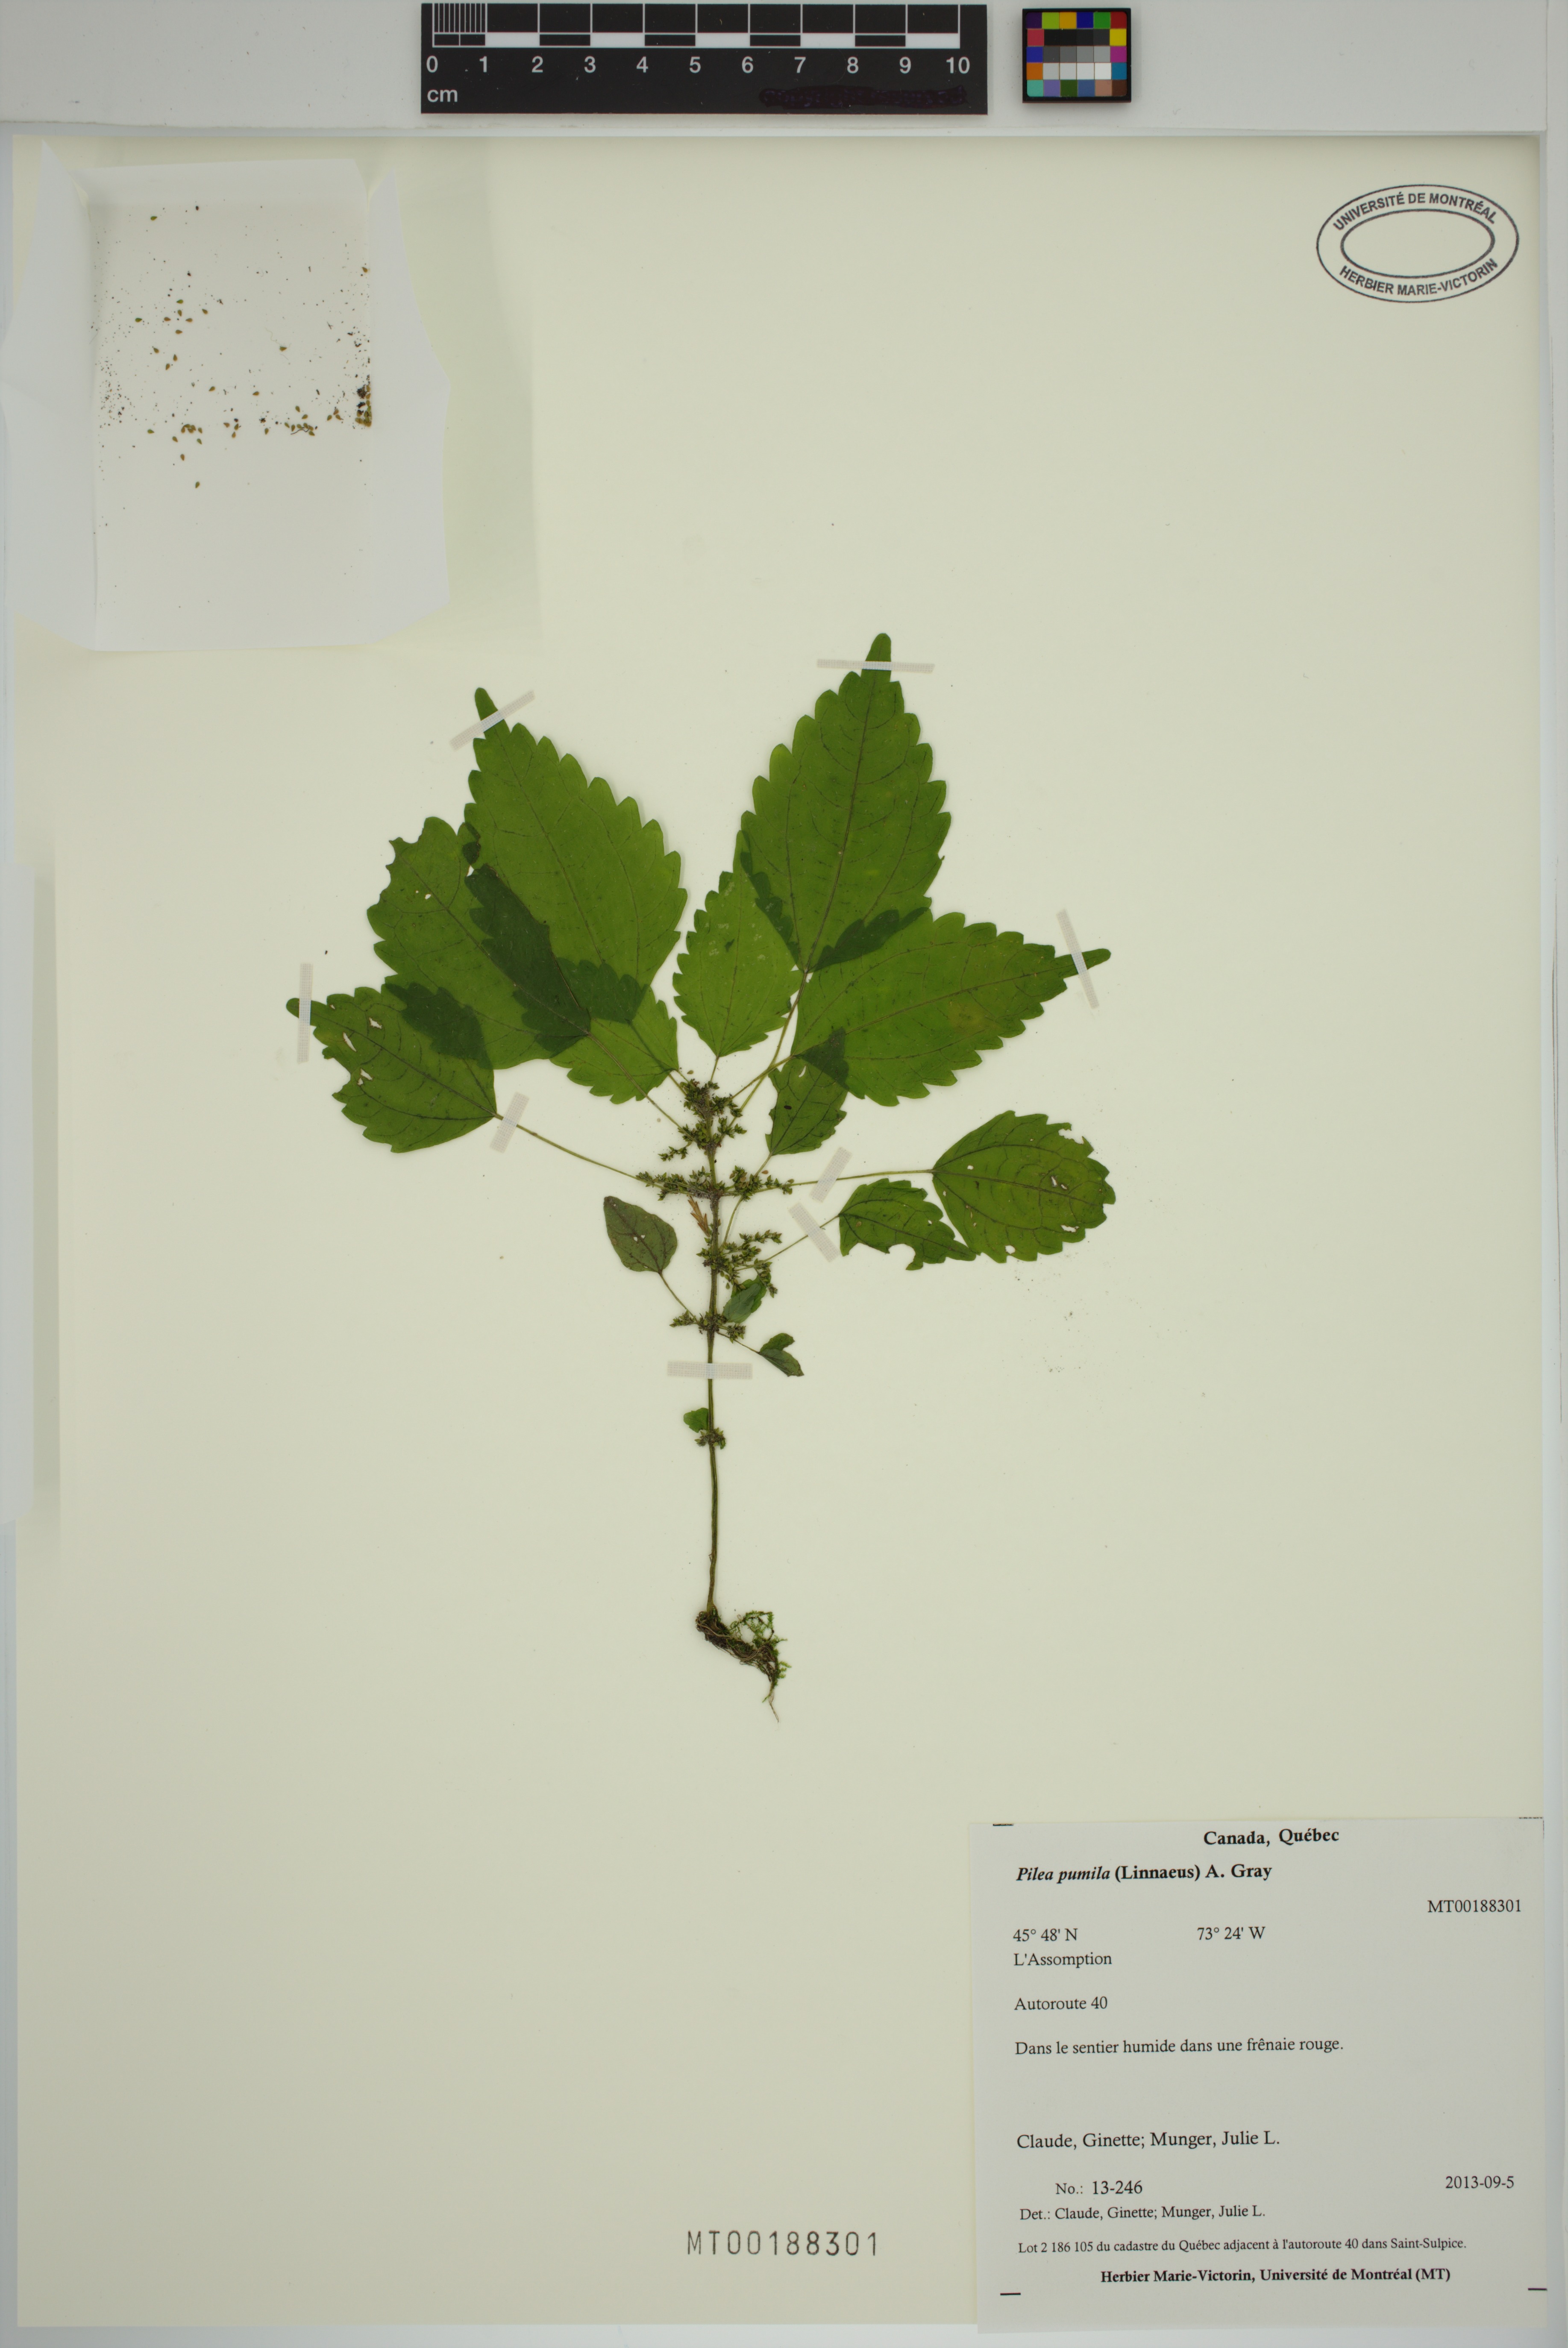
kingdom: Plantae
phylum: Tracheophyta
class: Magnoliopsida
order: Rosales
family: Urticaceae
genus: Pilea
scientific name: Pilea pumila
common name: Clearweed
